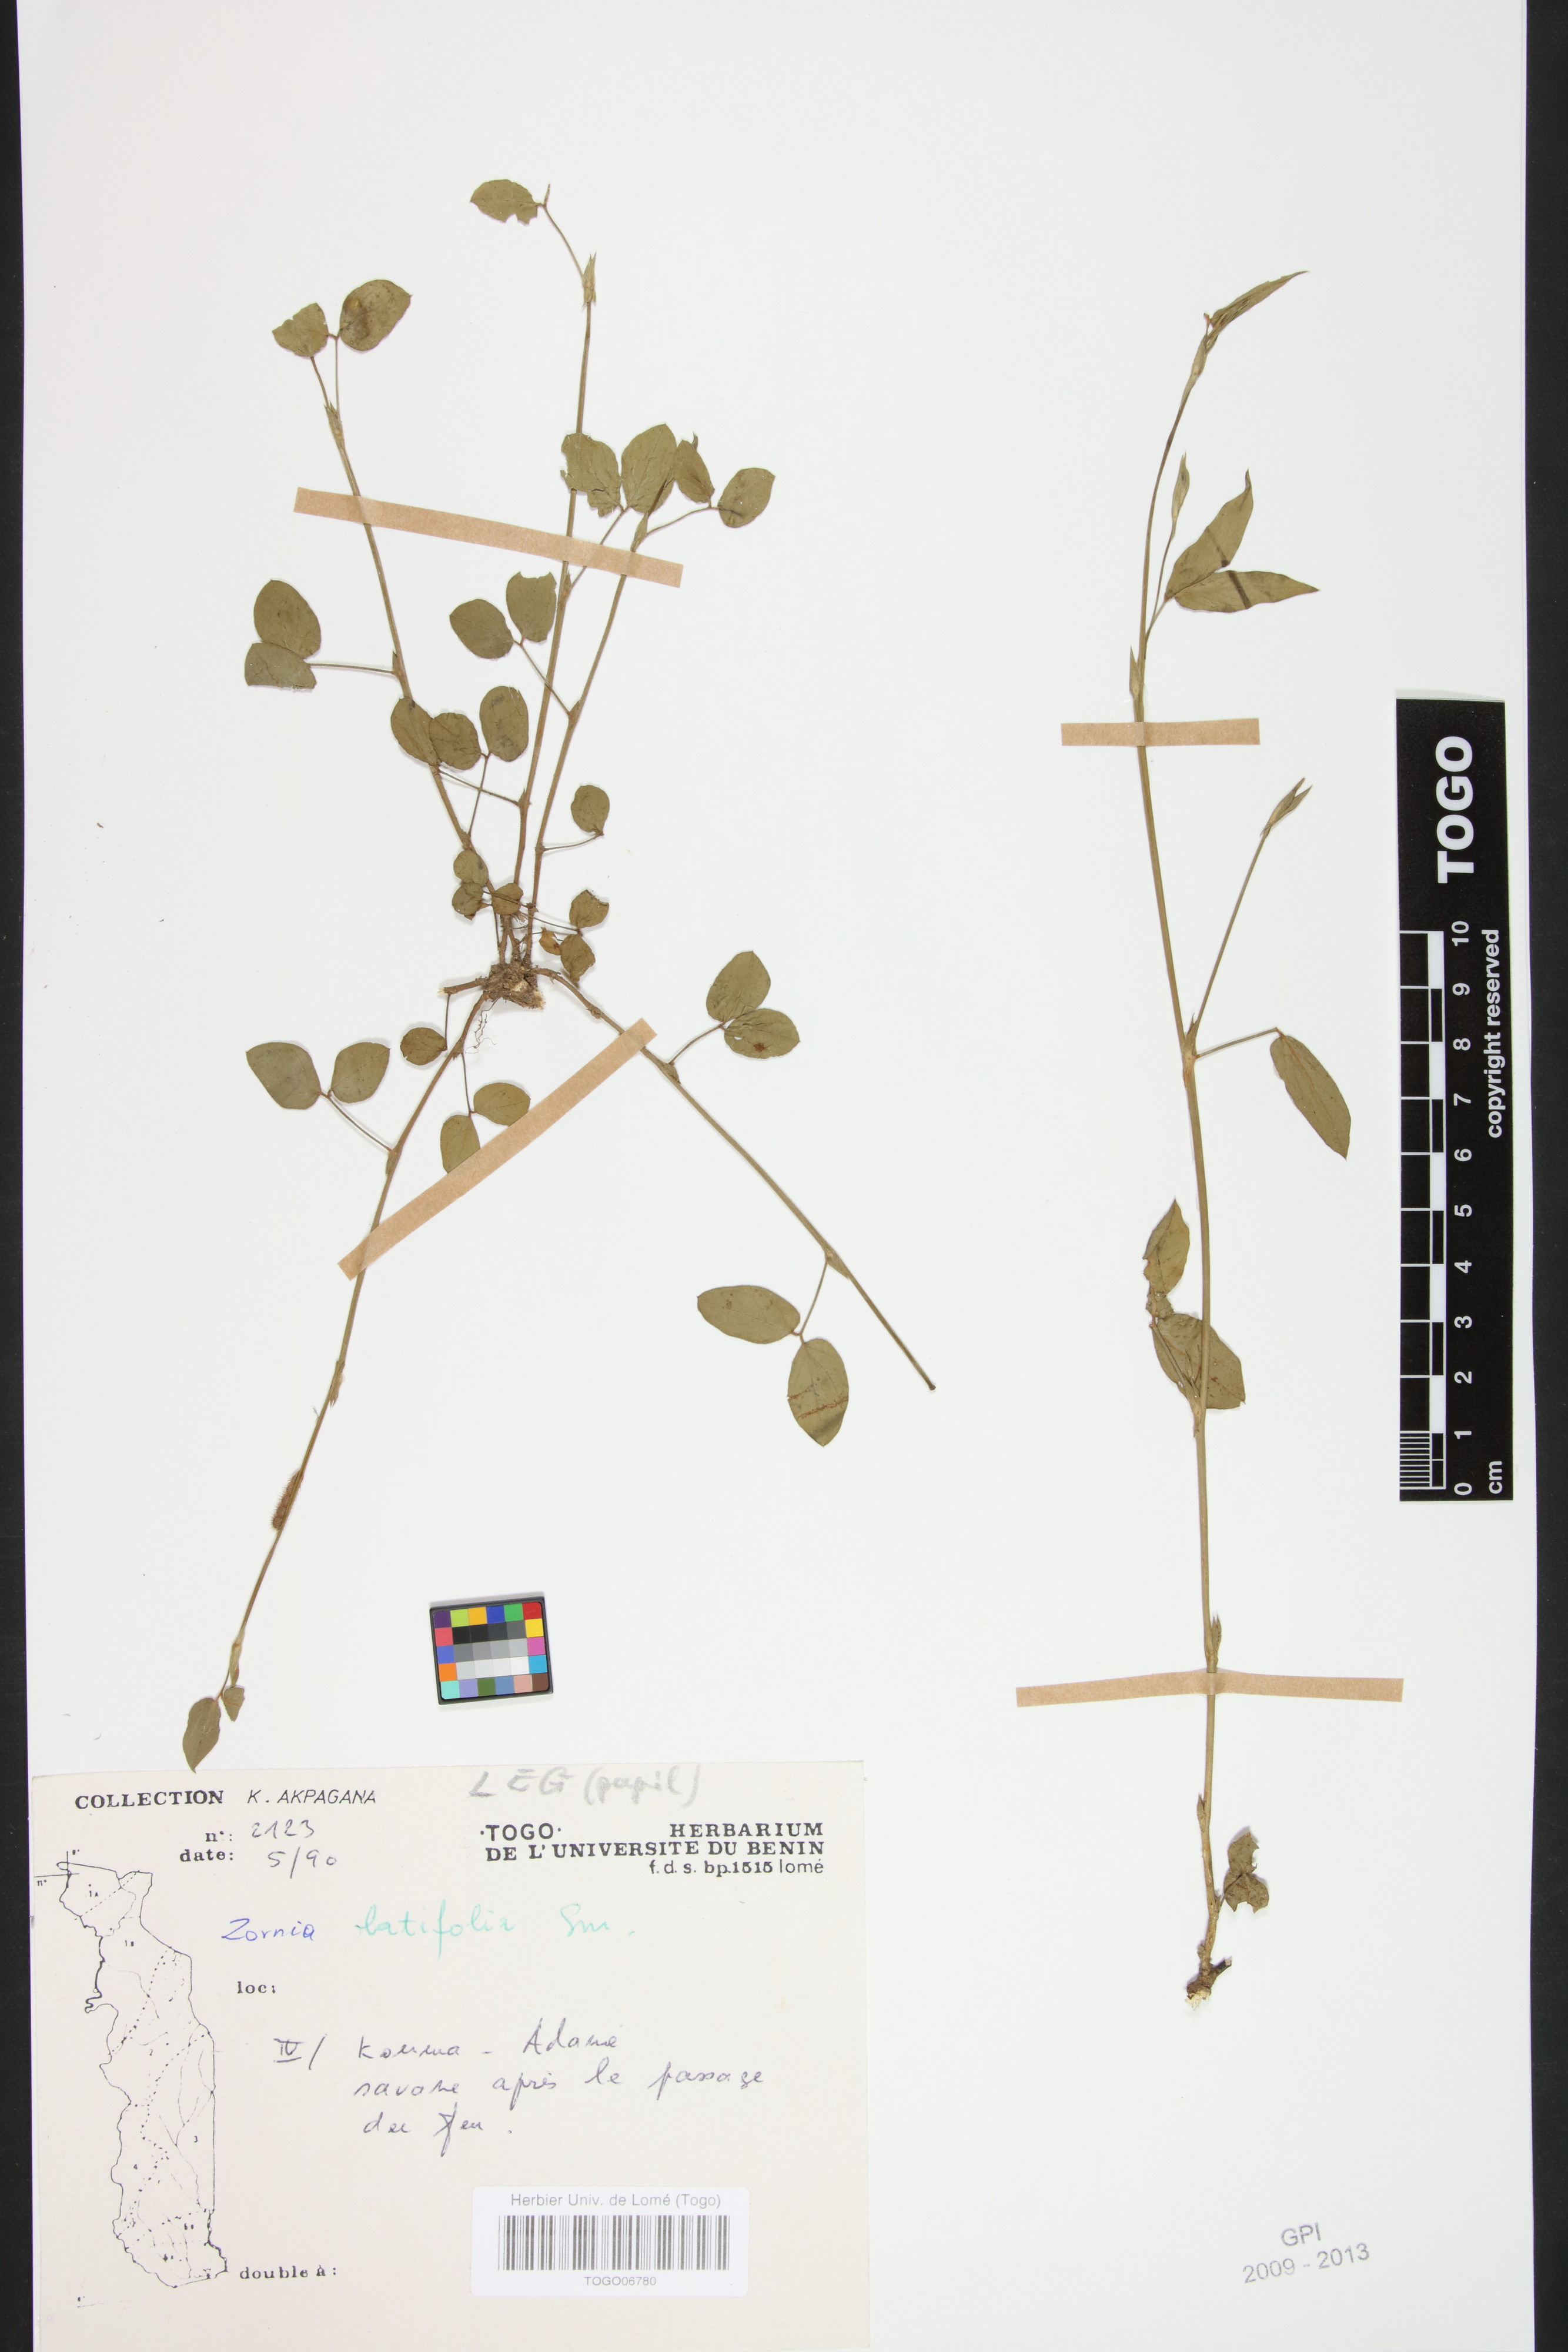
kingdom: Plantae
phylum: Tracheophyta
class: Magnoliopsida
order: Fabales
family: Fabaceae
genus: Zornia
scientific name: Zornia latifolia
